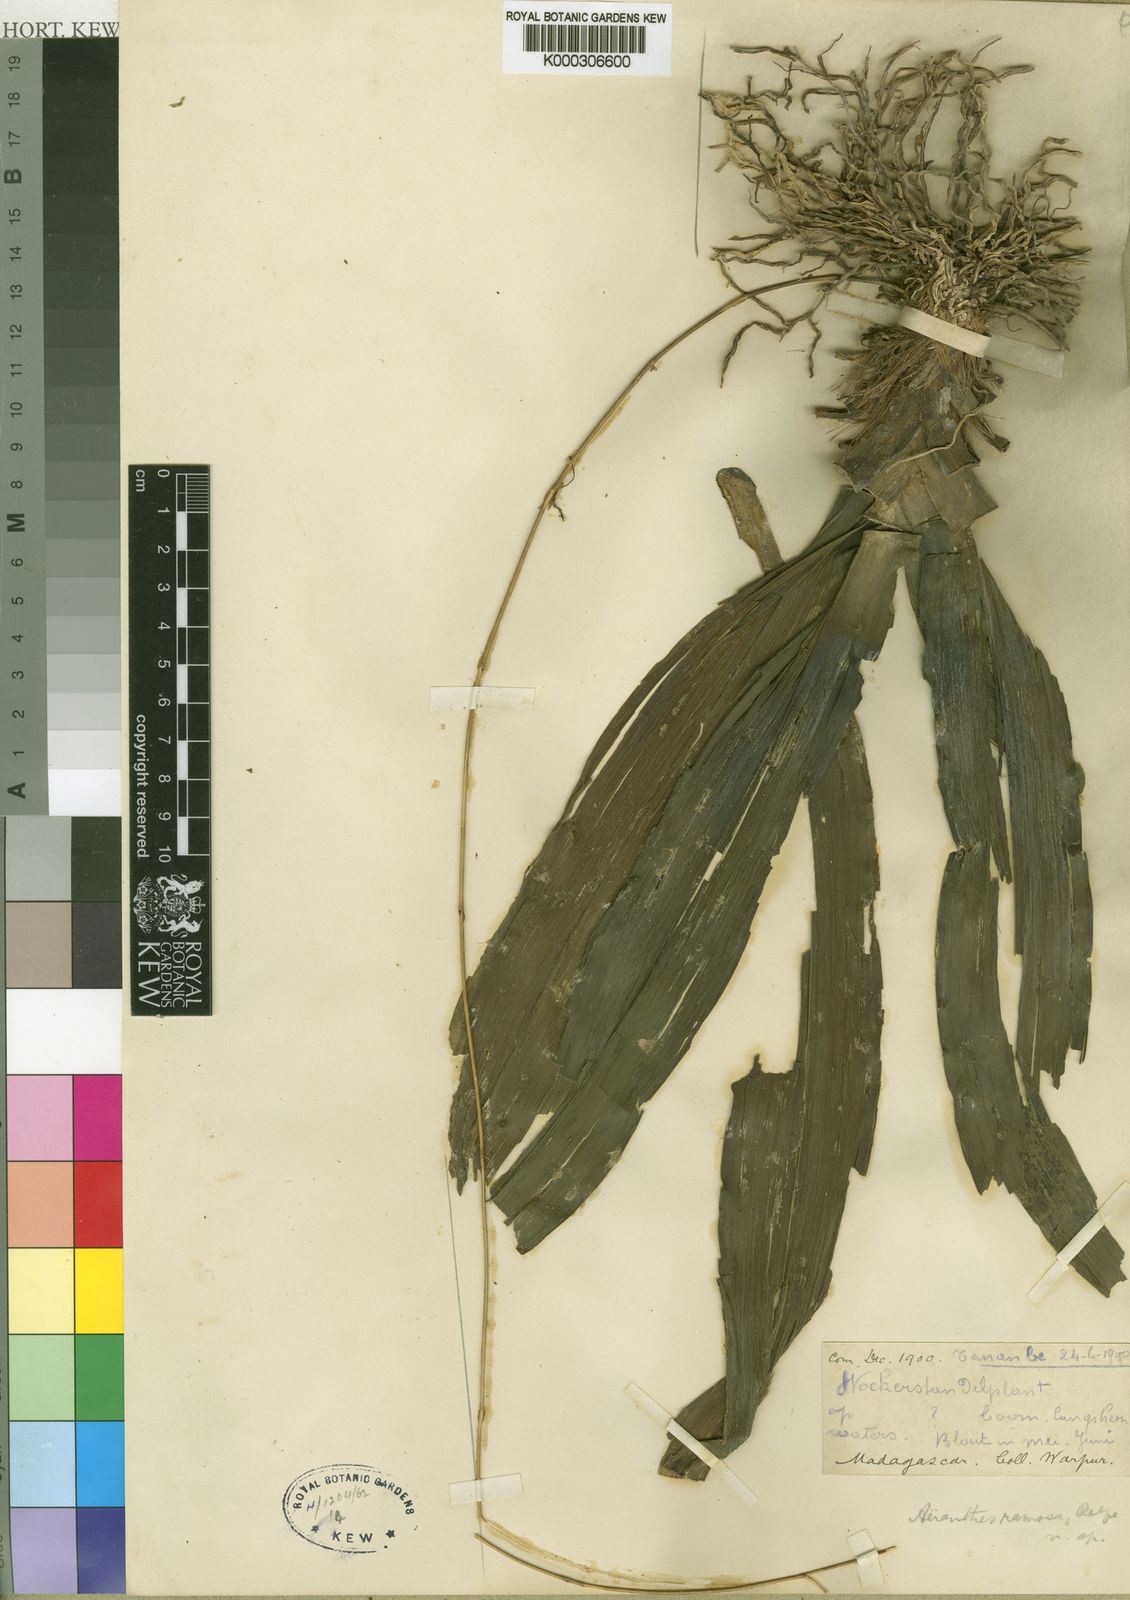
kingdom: Plantae
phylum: Tracheophyta
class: Liliopsida
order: Asparagales
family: Orchidaceae
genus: Aeranthes
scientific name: Aeranthes ramosa
